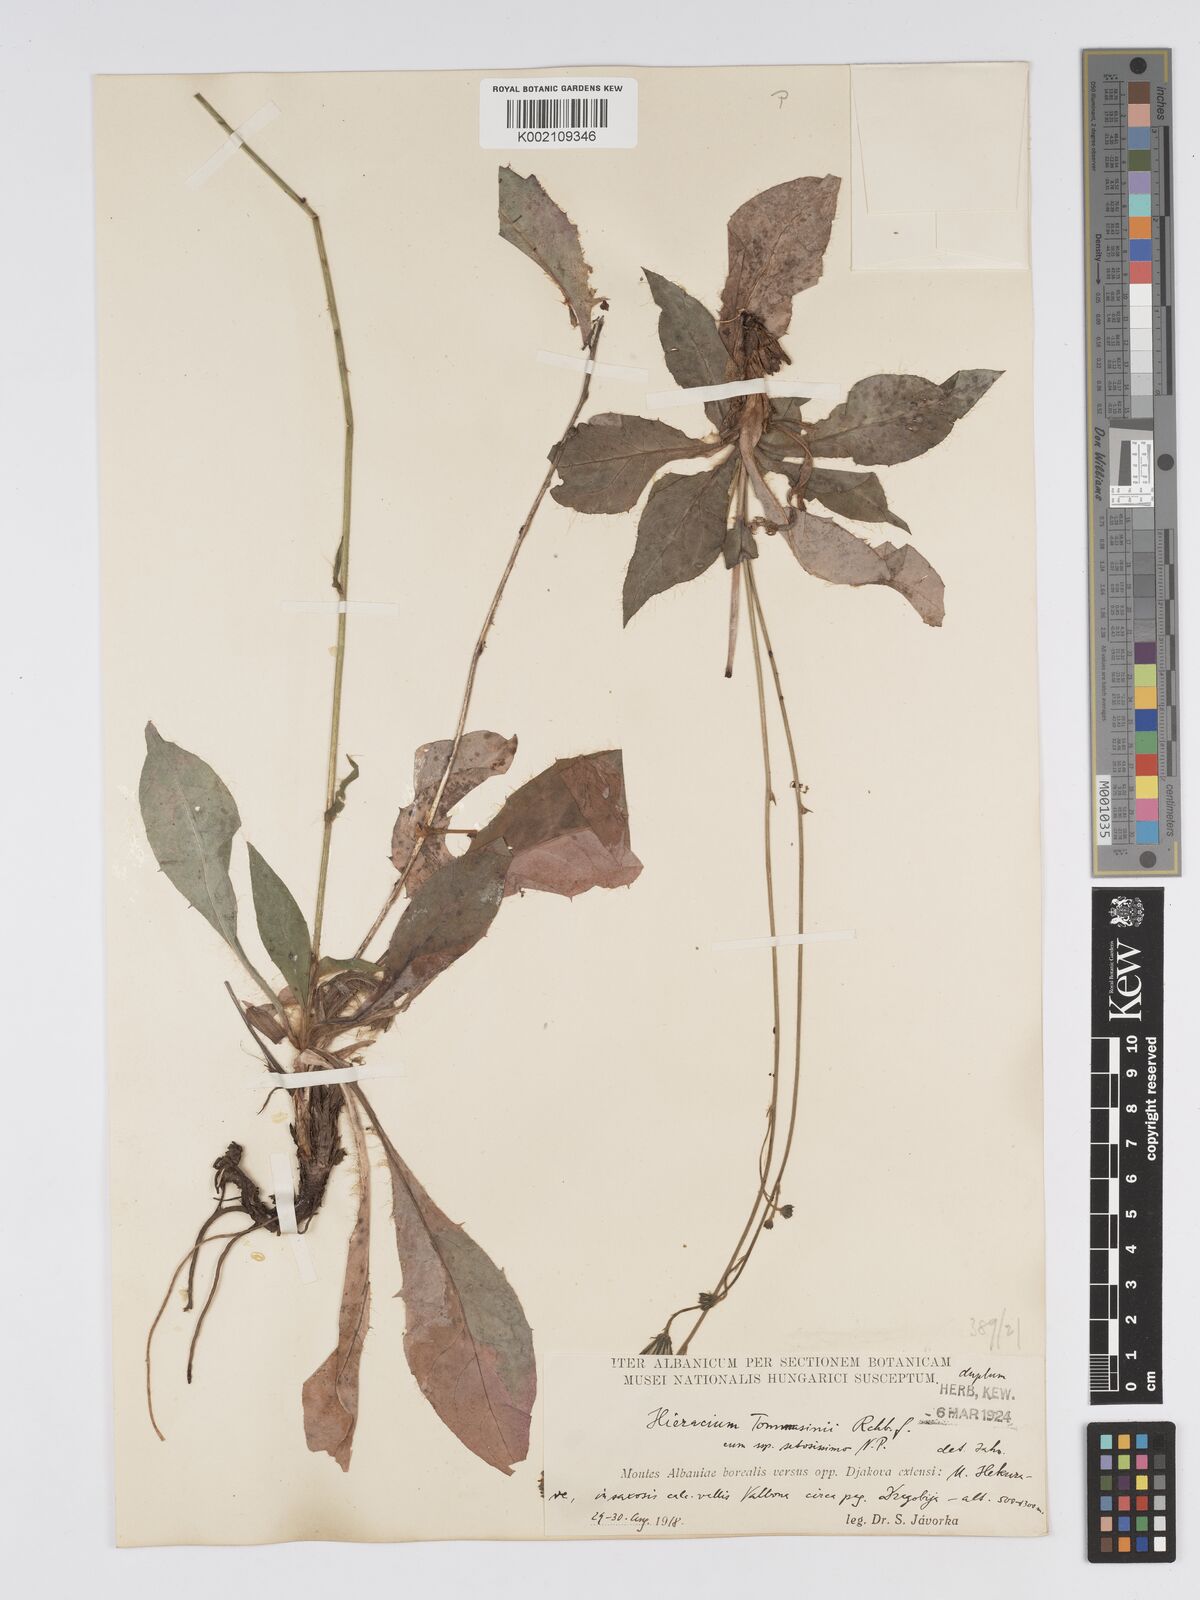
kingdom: Plantae
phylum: Tracheophyta
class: Magnoliopsida
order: Asterales
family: Asteraceae
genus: Hieracium
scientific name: Hieracium tommasinianum
